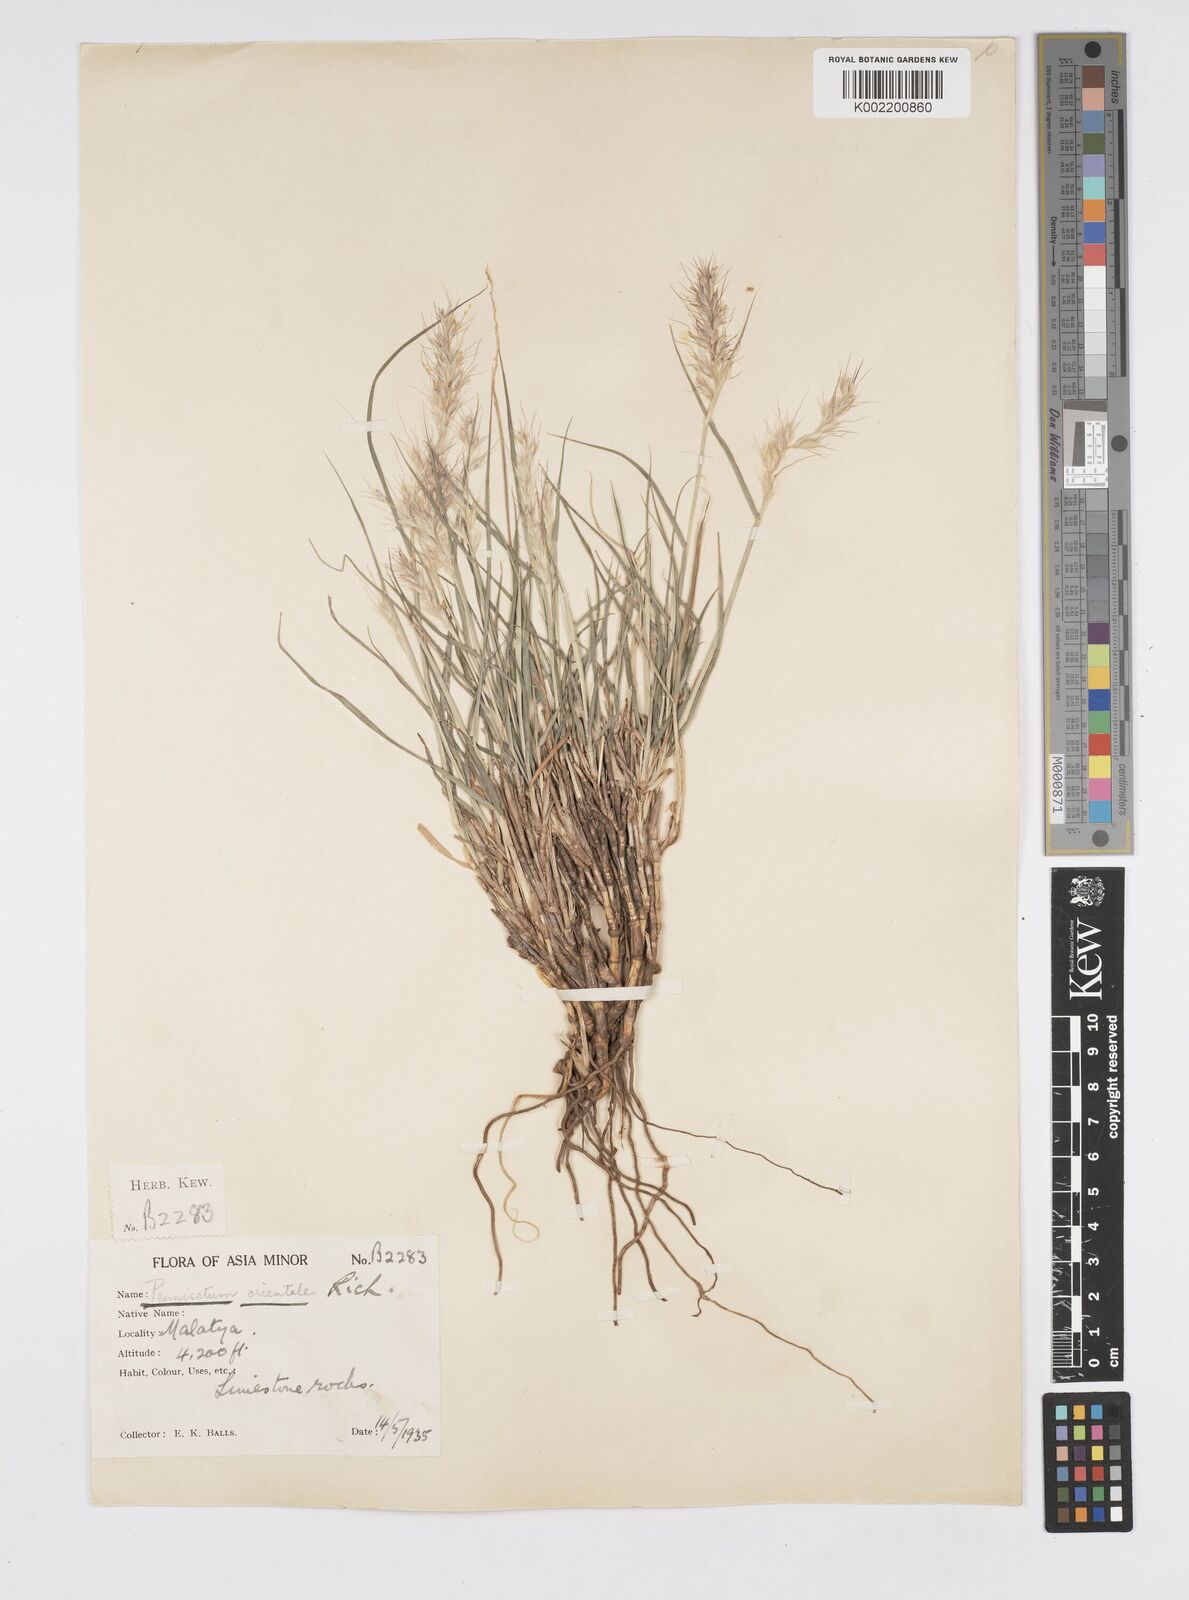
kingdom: Plantae
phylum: Tracheophyta
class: Liliopsida
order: Poales
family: Poaceae
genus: Cenchrus
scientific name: Cenchrus orientalis
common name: Oriental fountain grass
